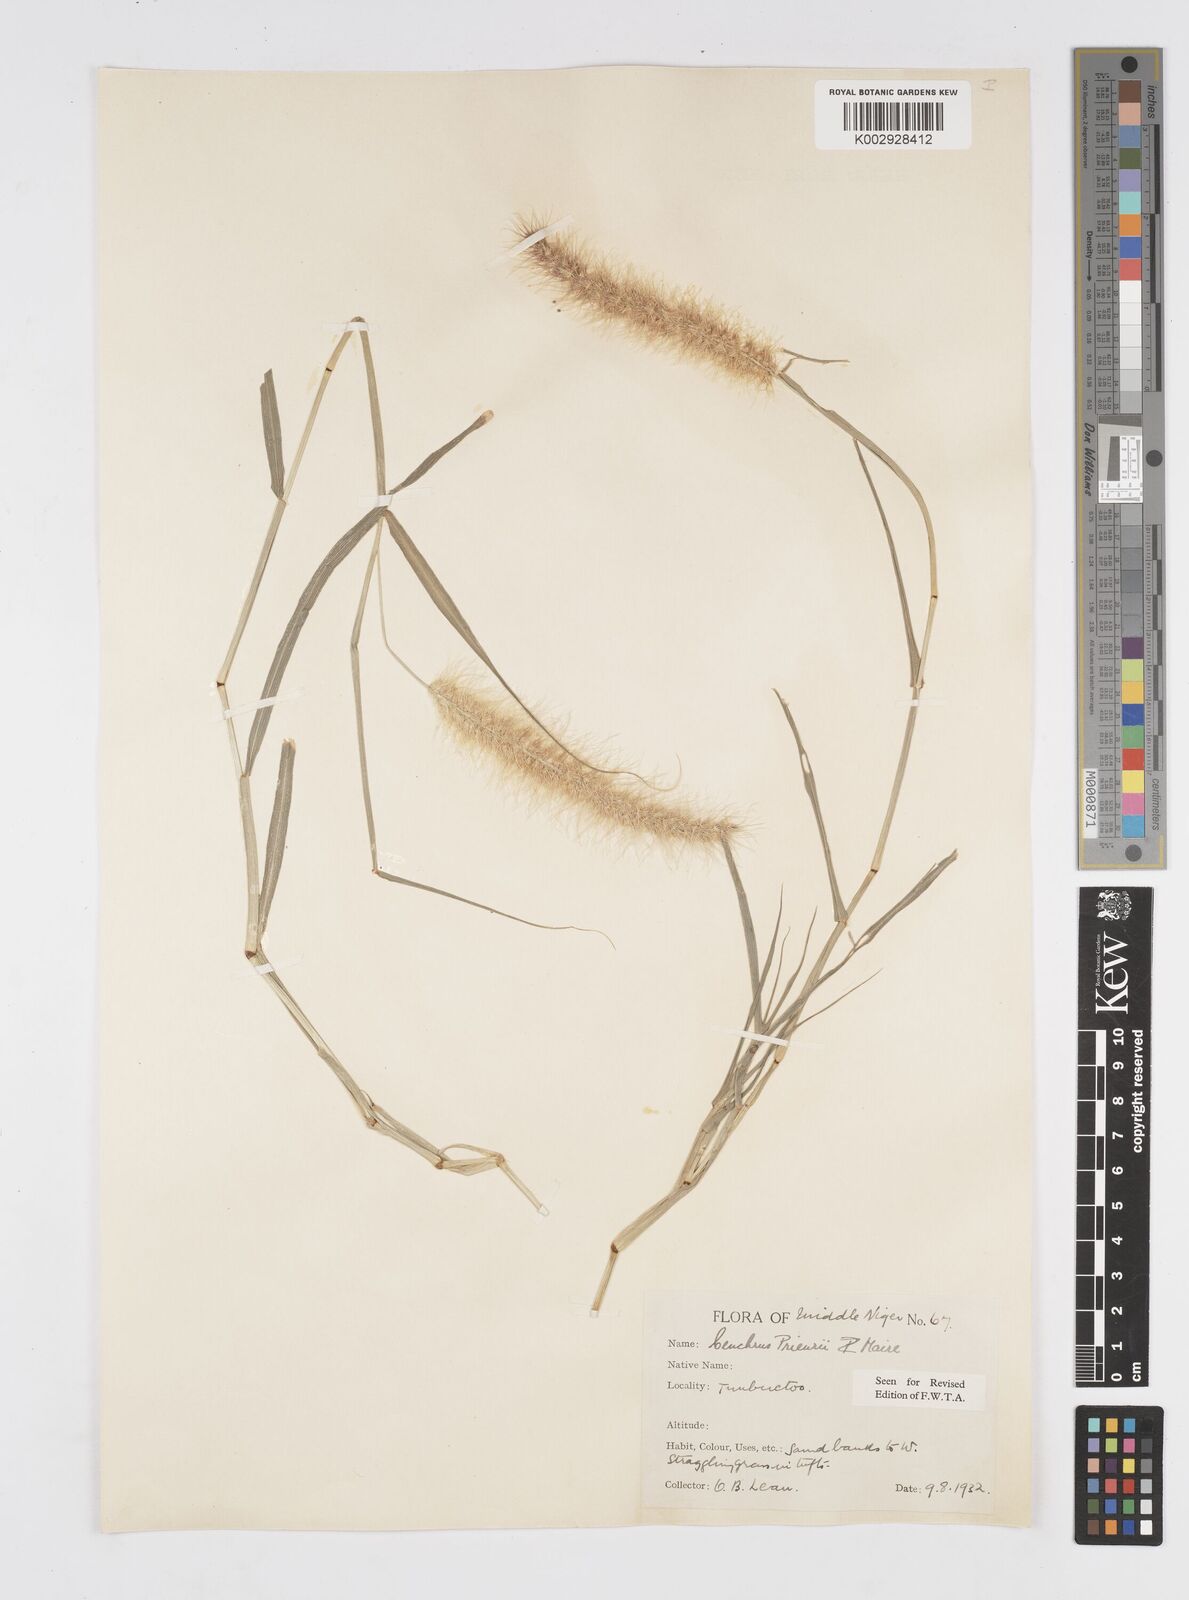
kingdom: Plantae
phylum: Tracheophyta
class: Liliopsida
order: Poales
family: Poaceae
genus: Cenchrus
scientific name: Cenchrus prieurii
